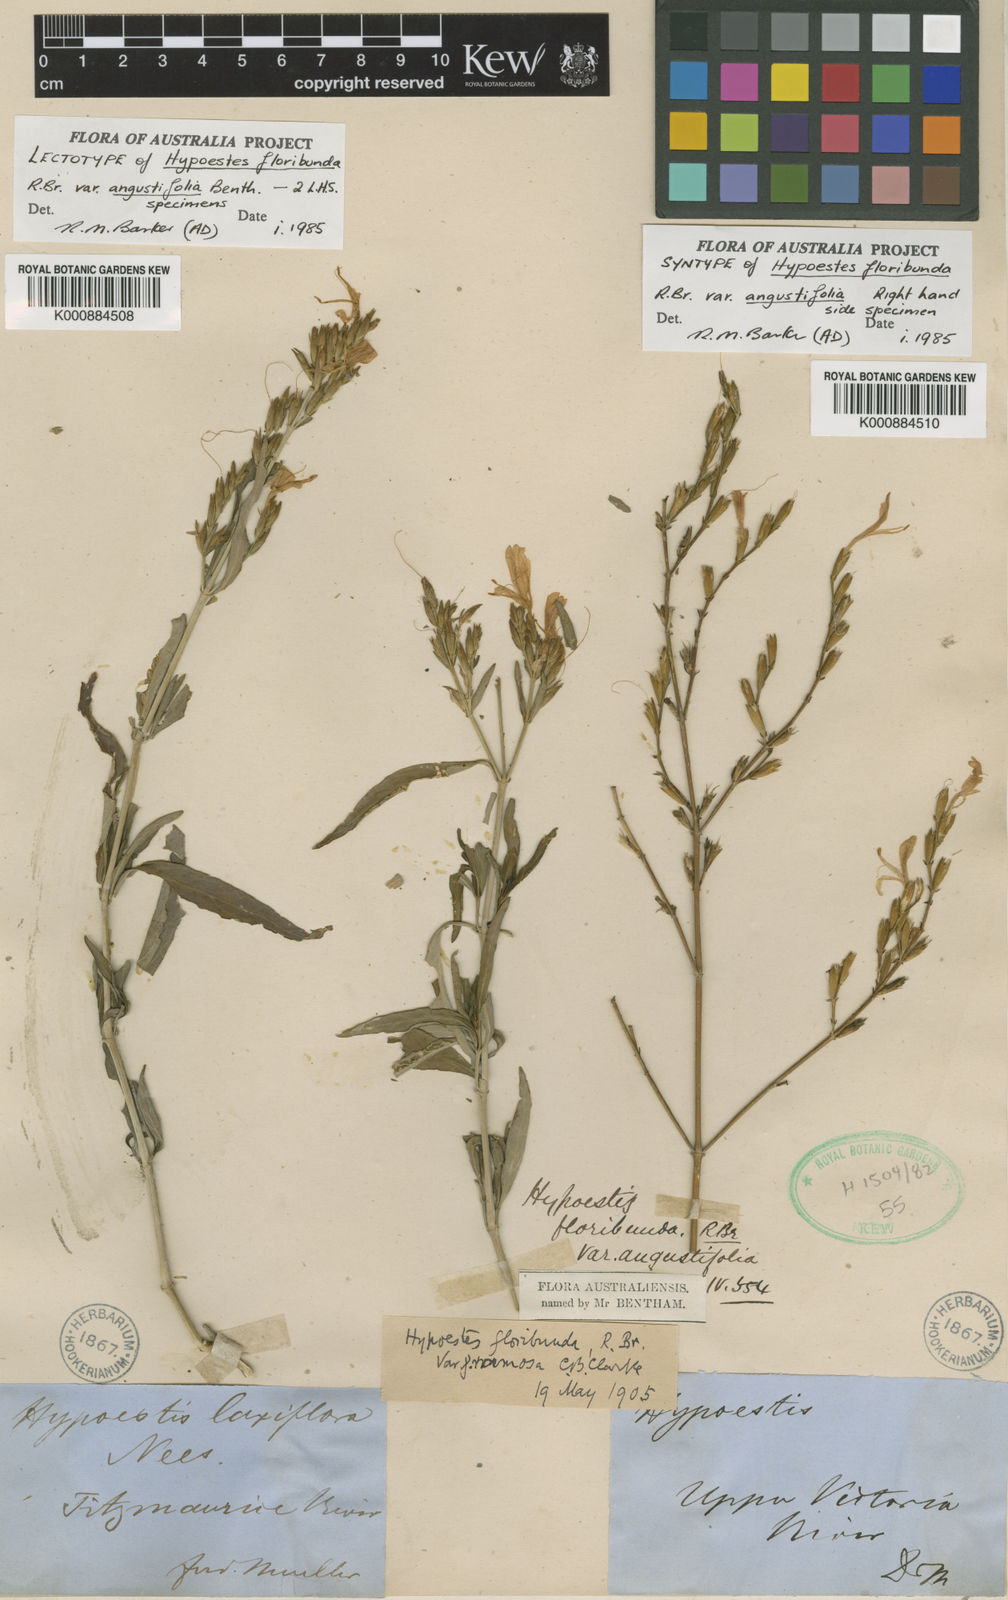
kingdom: Plantae
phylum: Tracheophyta
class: Magnoliopsida
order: Lamiales
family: Acanthaceae
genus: Hypoestes
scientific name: Hypoestes floribunda
